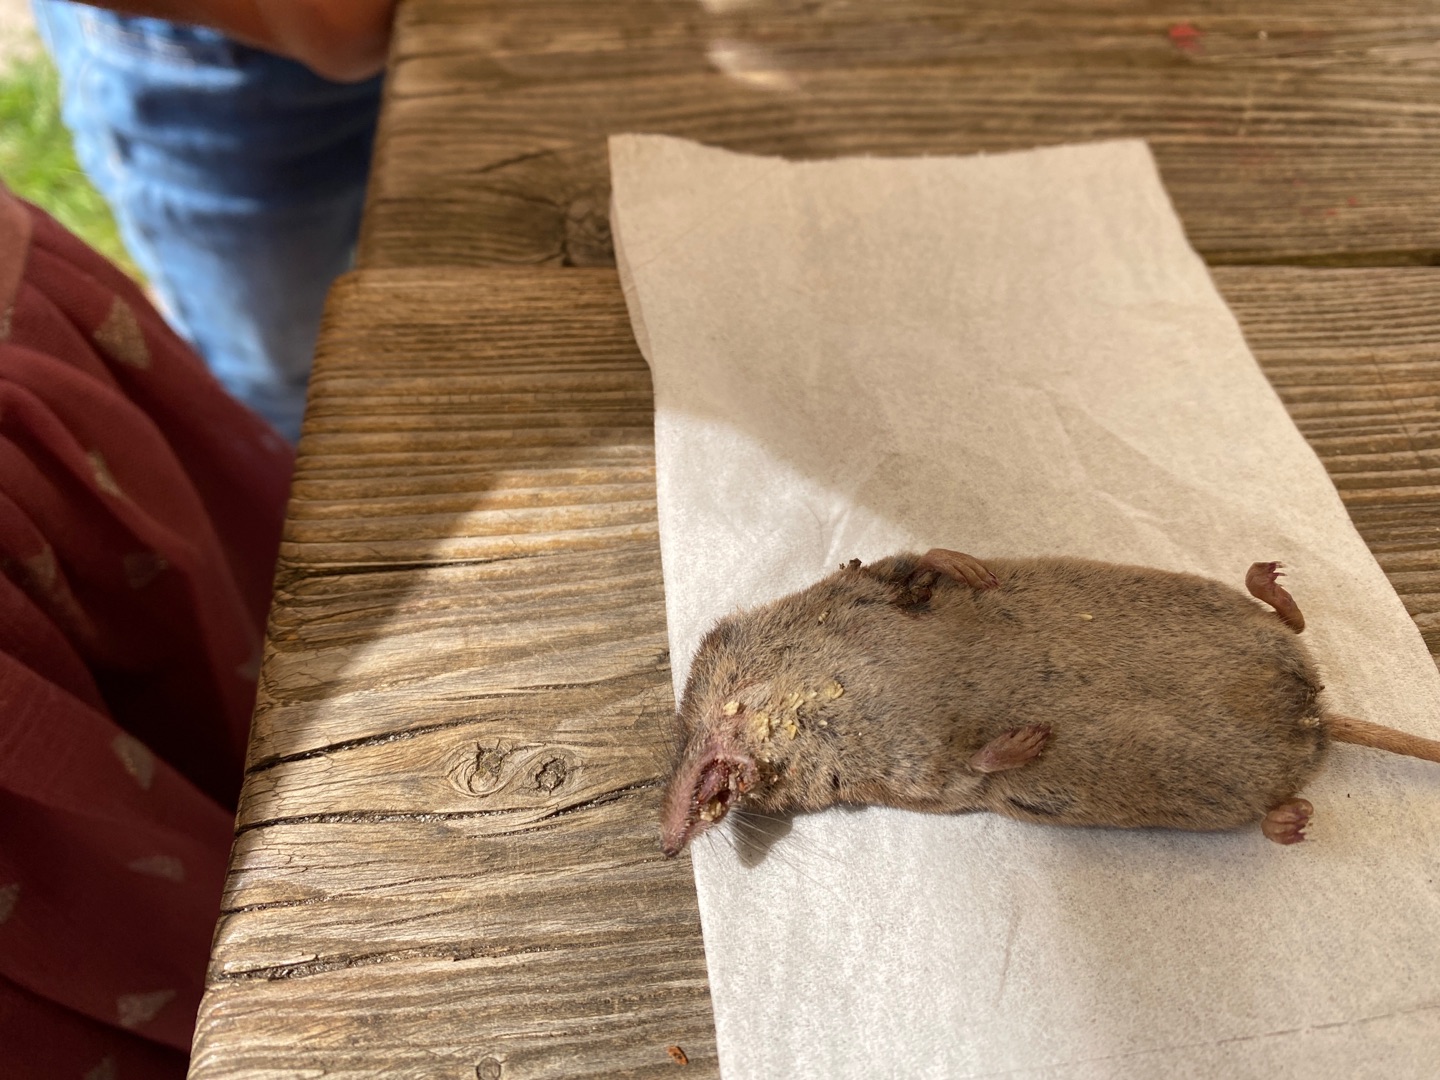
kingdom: Animalia
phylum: Chordata
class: Mammalia
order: Soricomorpha
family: Soricidae
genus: Sorex
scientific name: Sorex araneus
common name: Almindelig spidsmus
